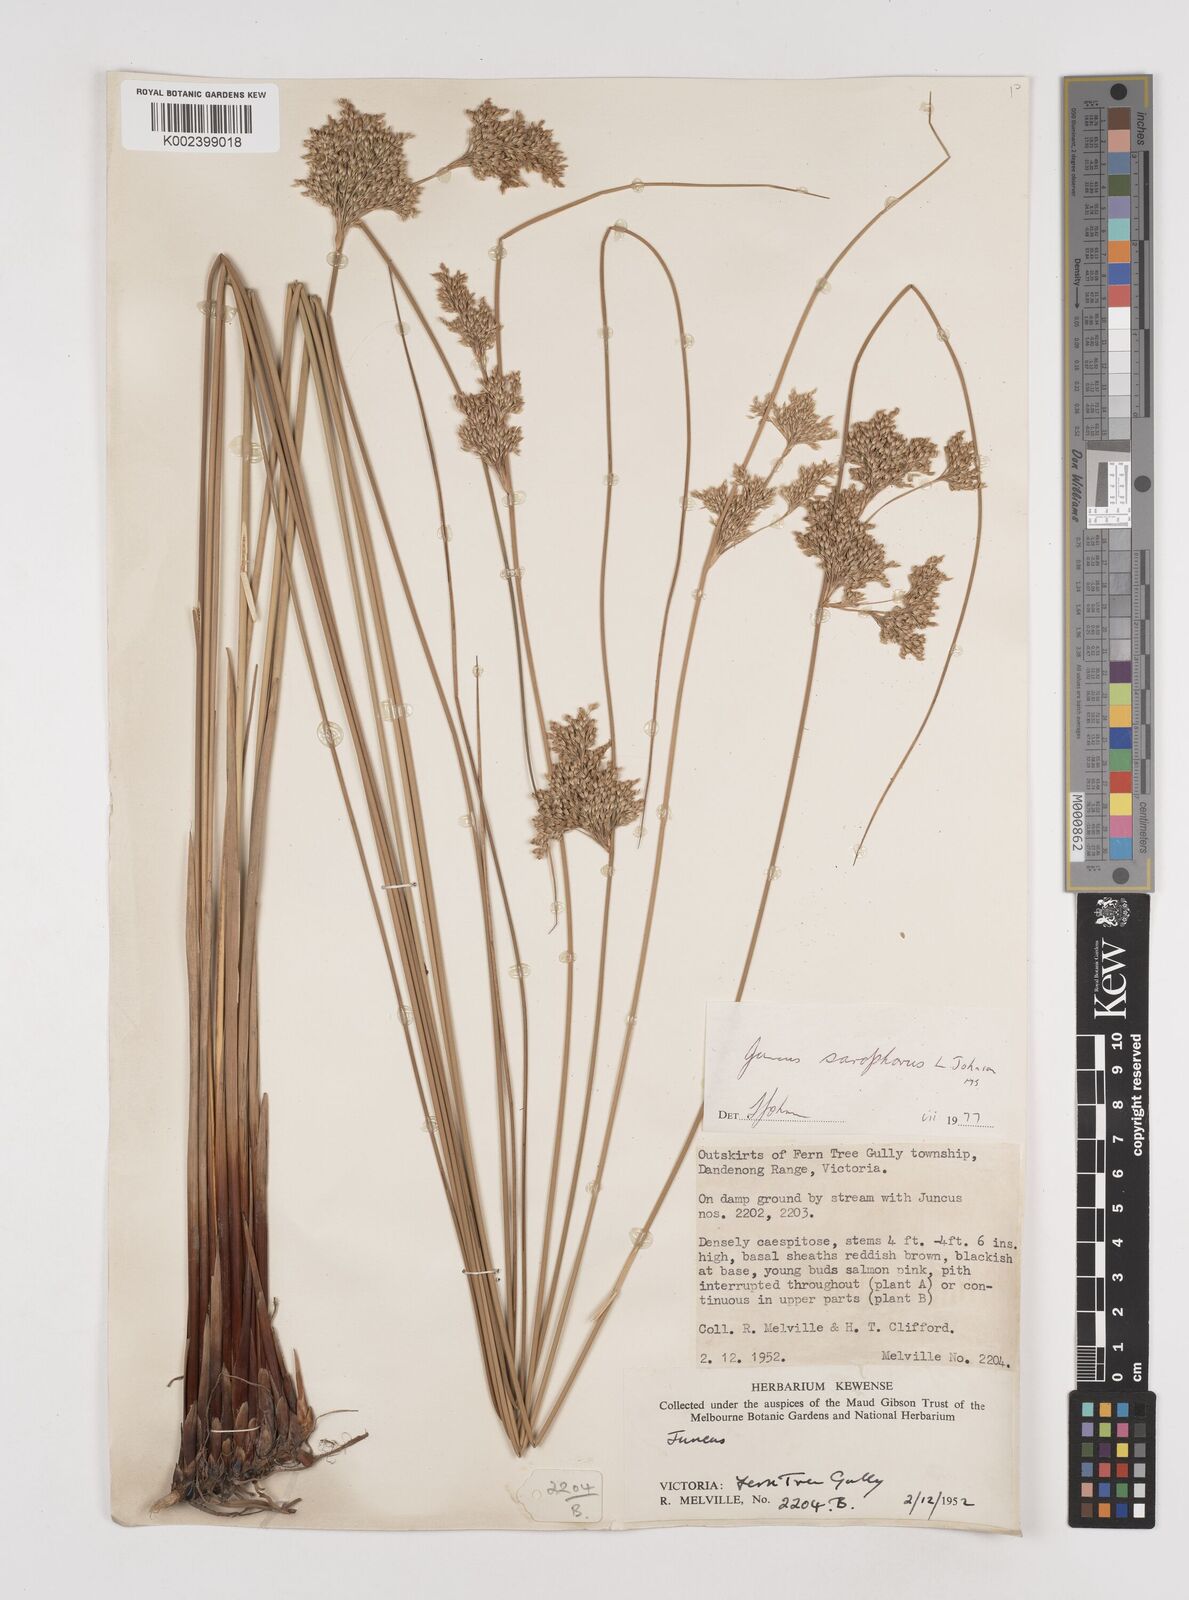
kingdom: Plantae
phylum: Tracheophyta
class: Liliopsida
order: Poales
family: Juncaceae
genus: Juncus
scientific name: Juncus sarophorus
